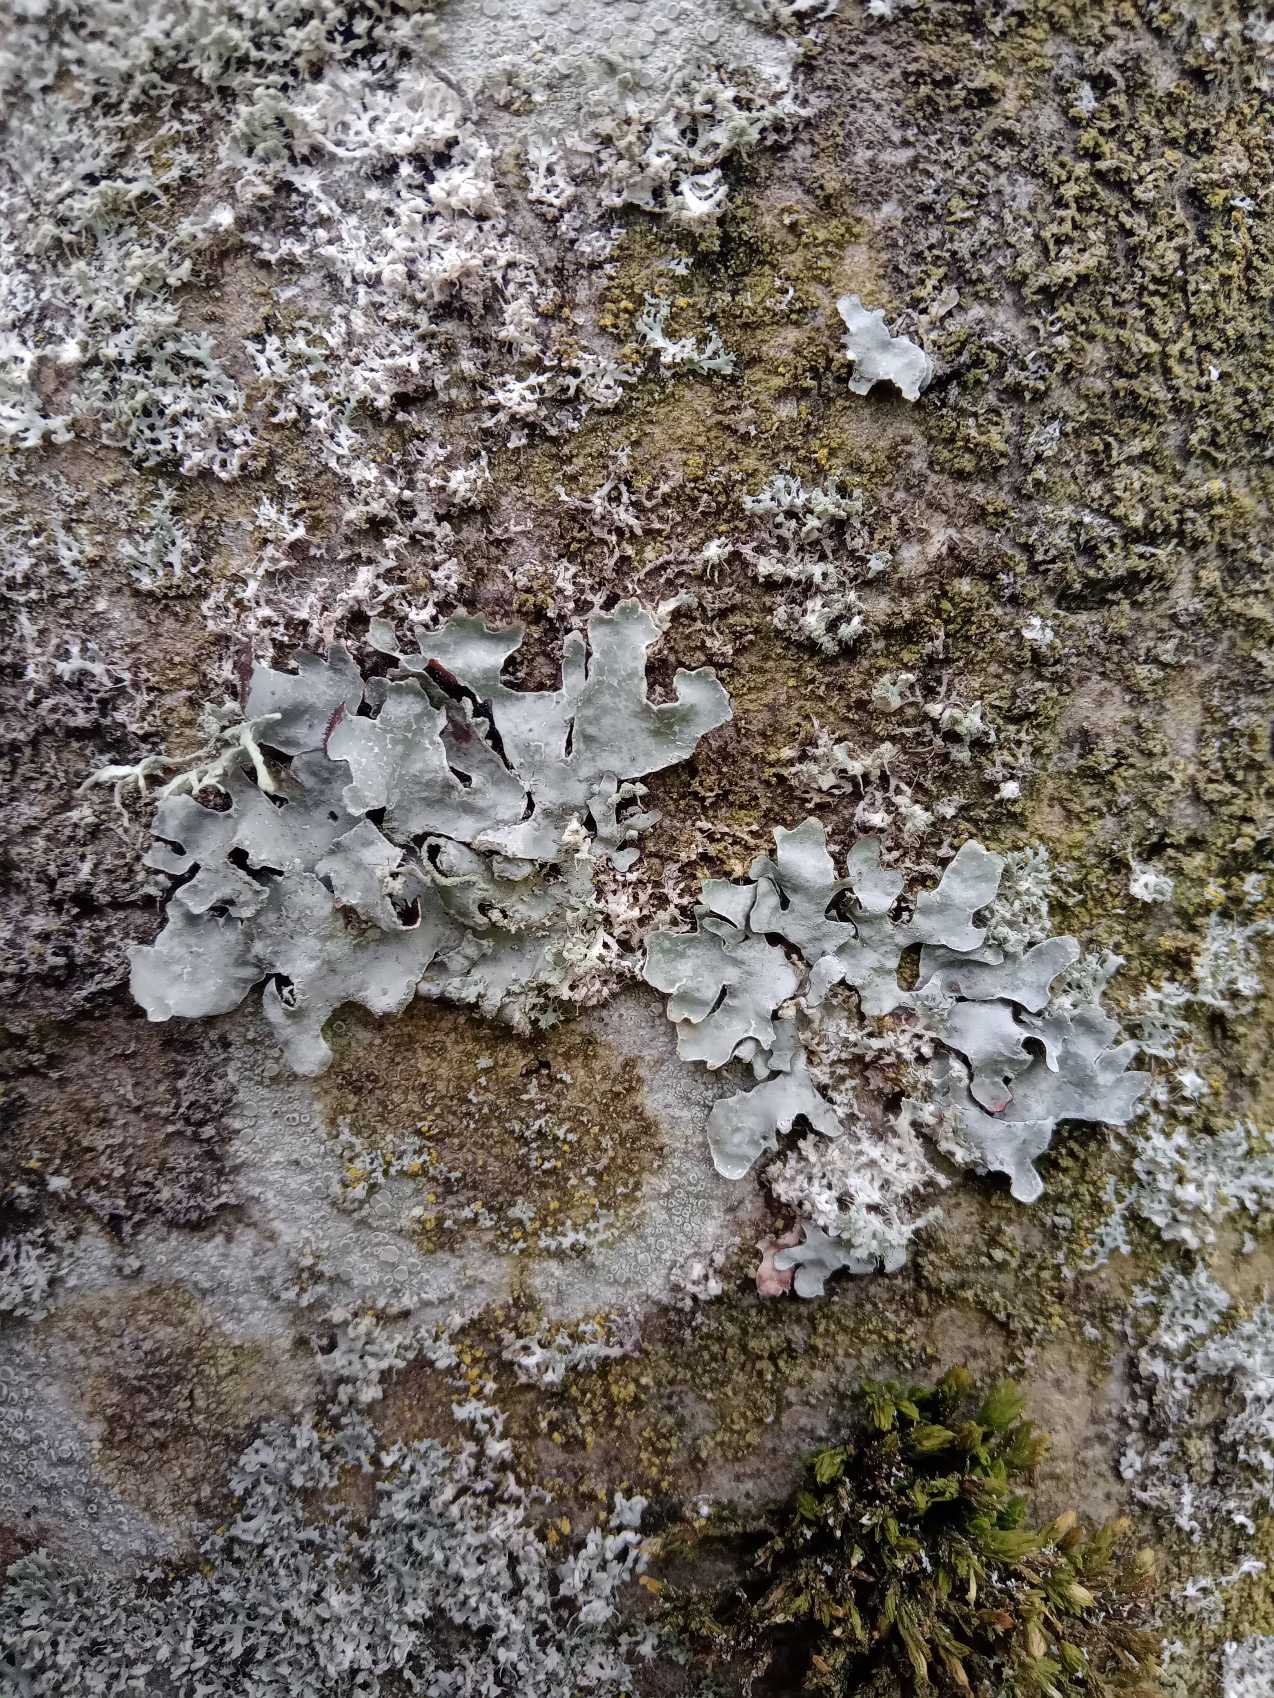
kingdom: Fungi
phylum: Ascomycota
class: Lecanoromycetes
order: Lecanorales
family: Parmeliaceae
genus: Parmelia
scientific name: Parmelia sulcata
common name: Rynket skållav
